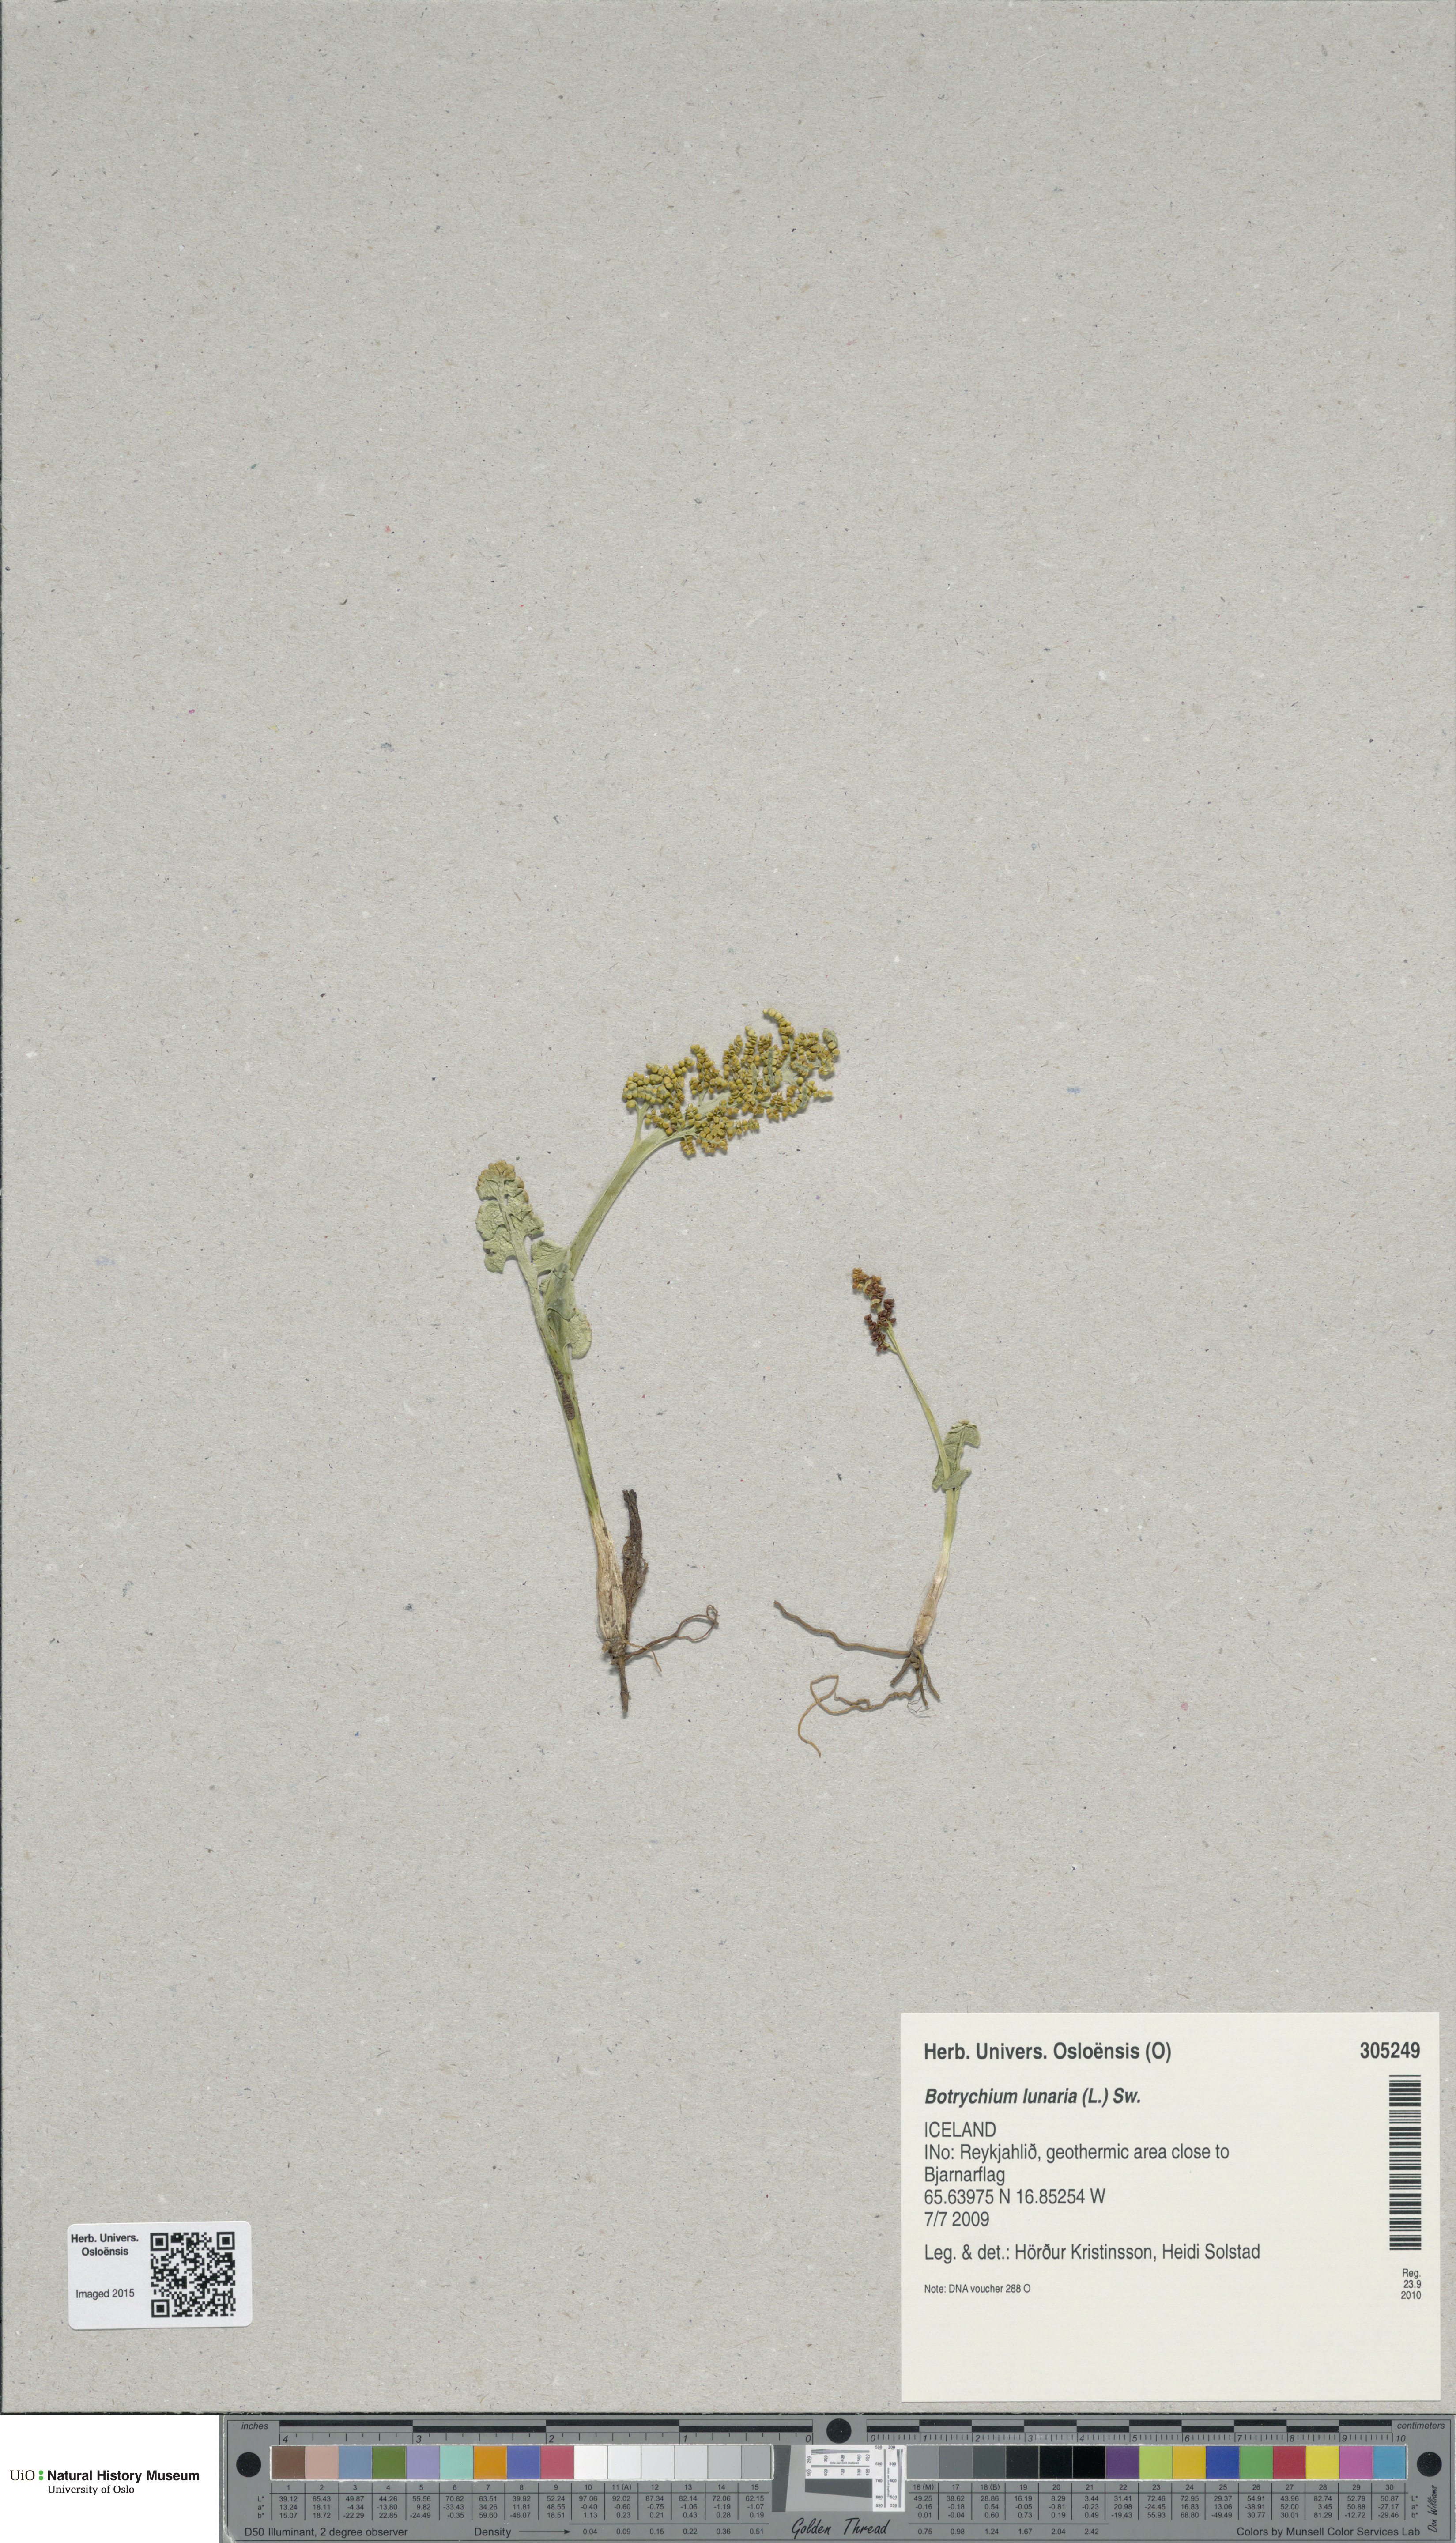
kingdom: Plantae
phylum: Tracheophyta
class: Polypodiopsida
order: Ophioglossales
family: Ophioglossaceae
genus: Botrychium
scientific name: Botrychium lunaria
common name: Moonwort
